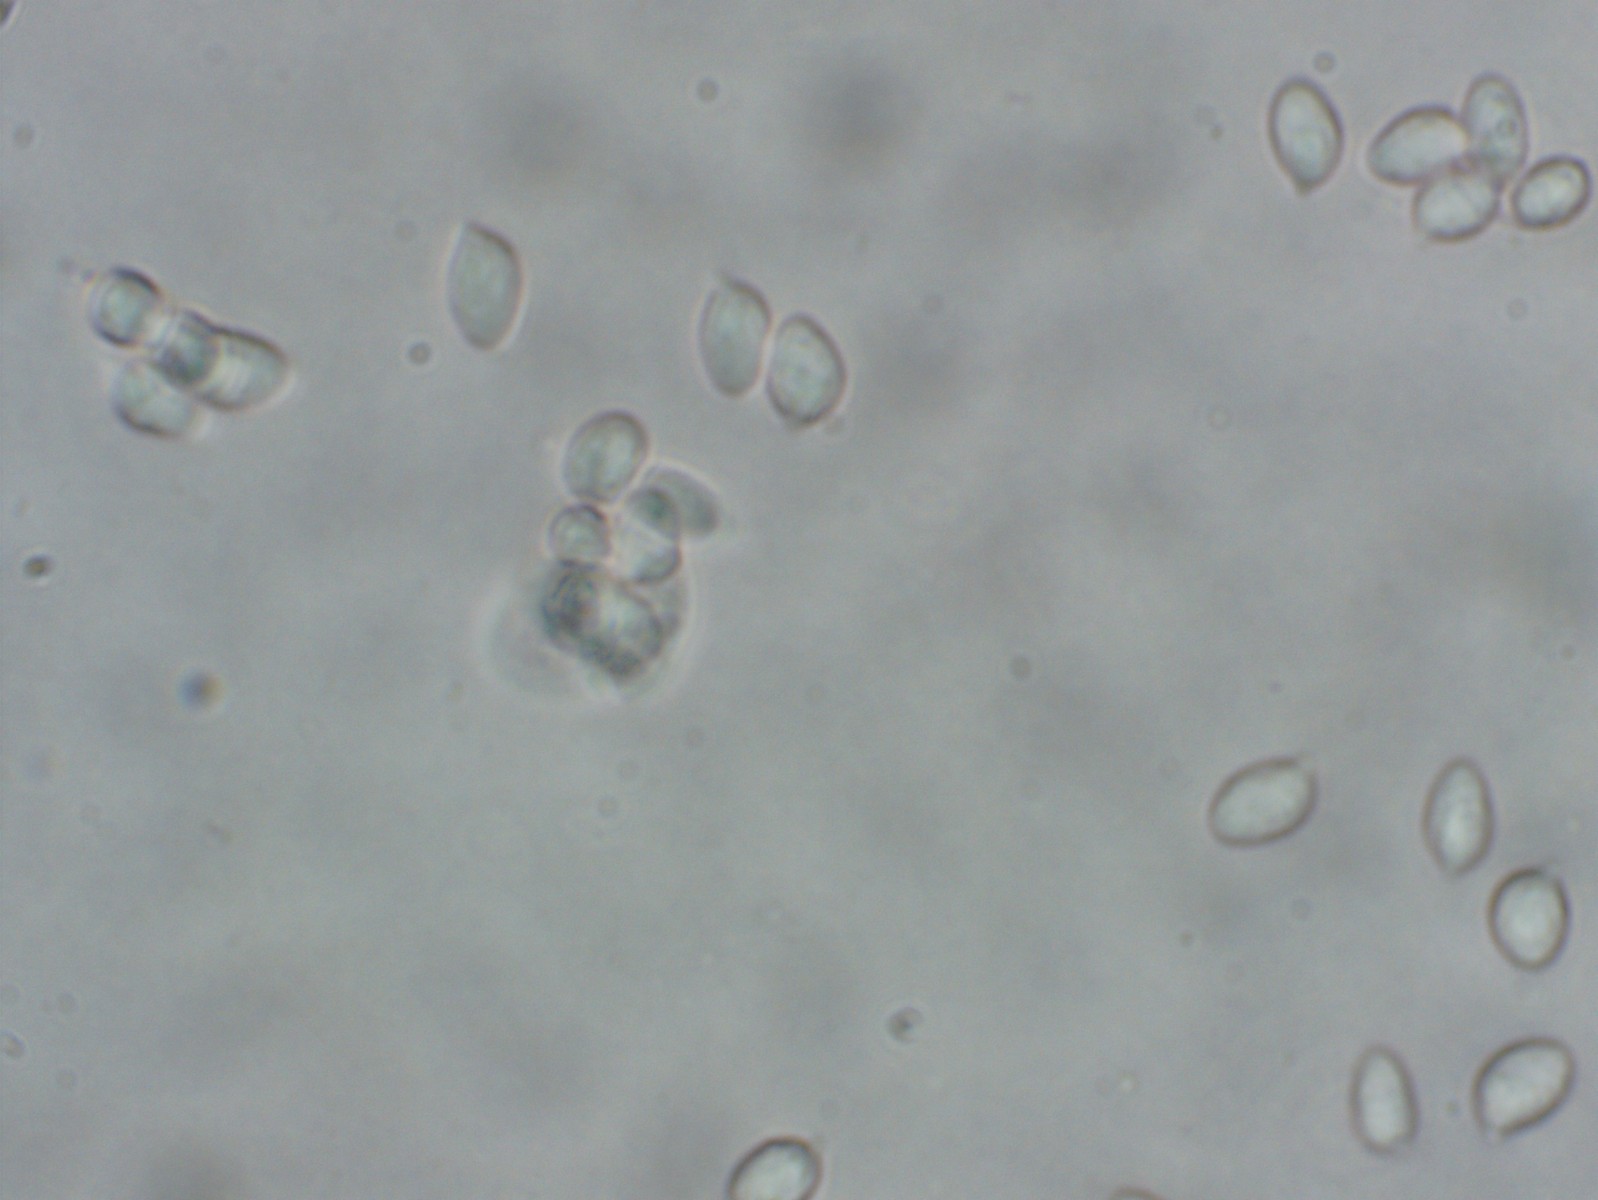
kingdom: Fungi
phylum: Basidiomycota
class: Agaricomycetes
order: Agaricales
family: Tricholomataceae
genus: Omphalina
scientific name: Omphalina
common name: navlehat
